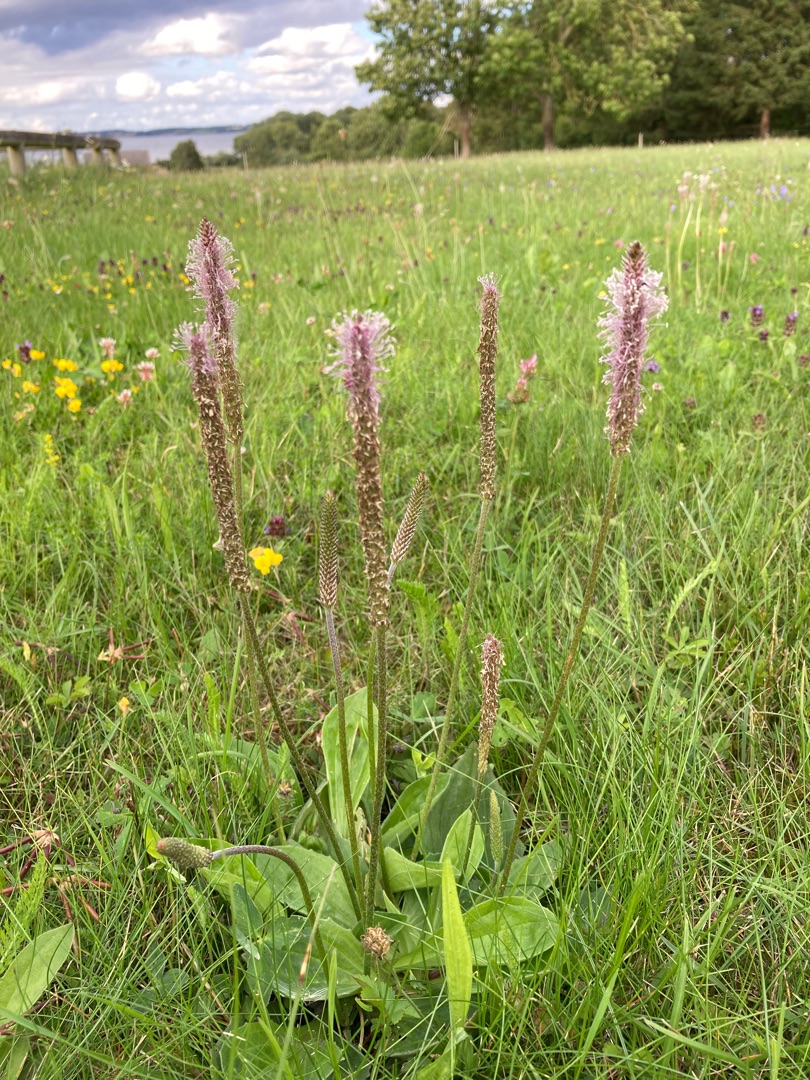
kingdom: Plantae
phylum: Tracheophyta
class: Magnoliopsida
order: Lamiales
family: Plantaginaceae
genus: Plantago
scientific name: Plantago media
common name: Dunet vejbred
